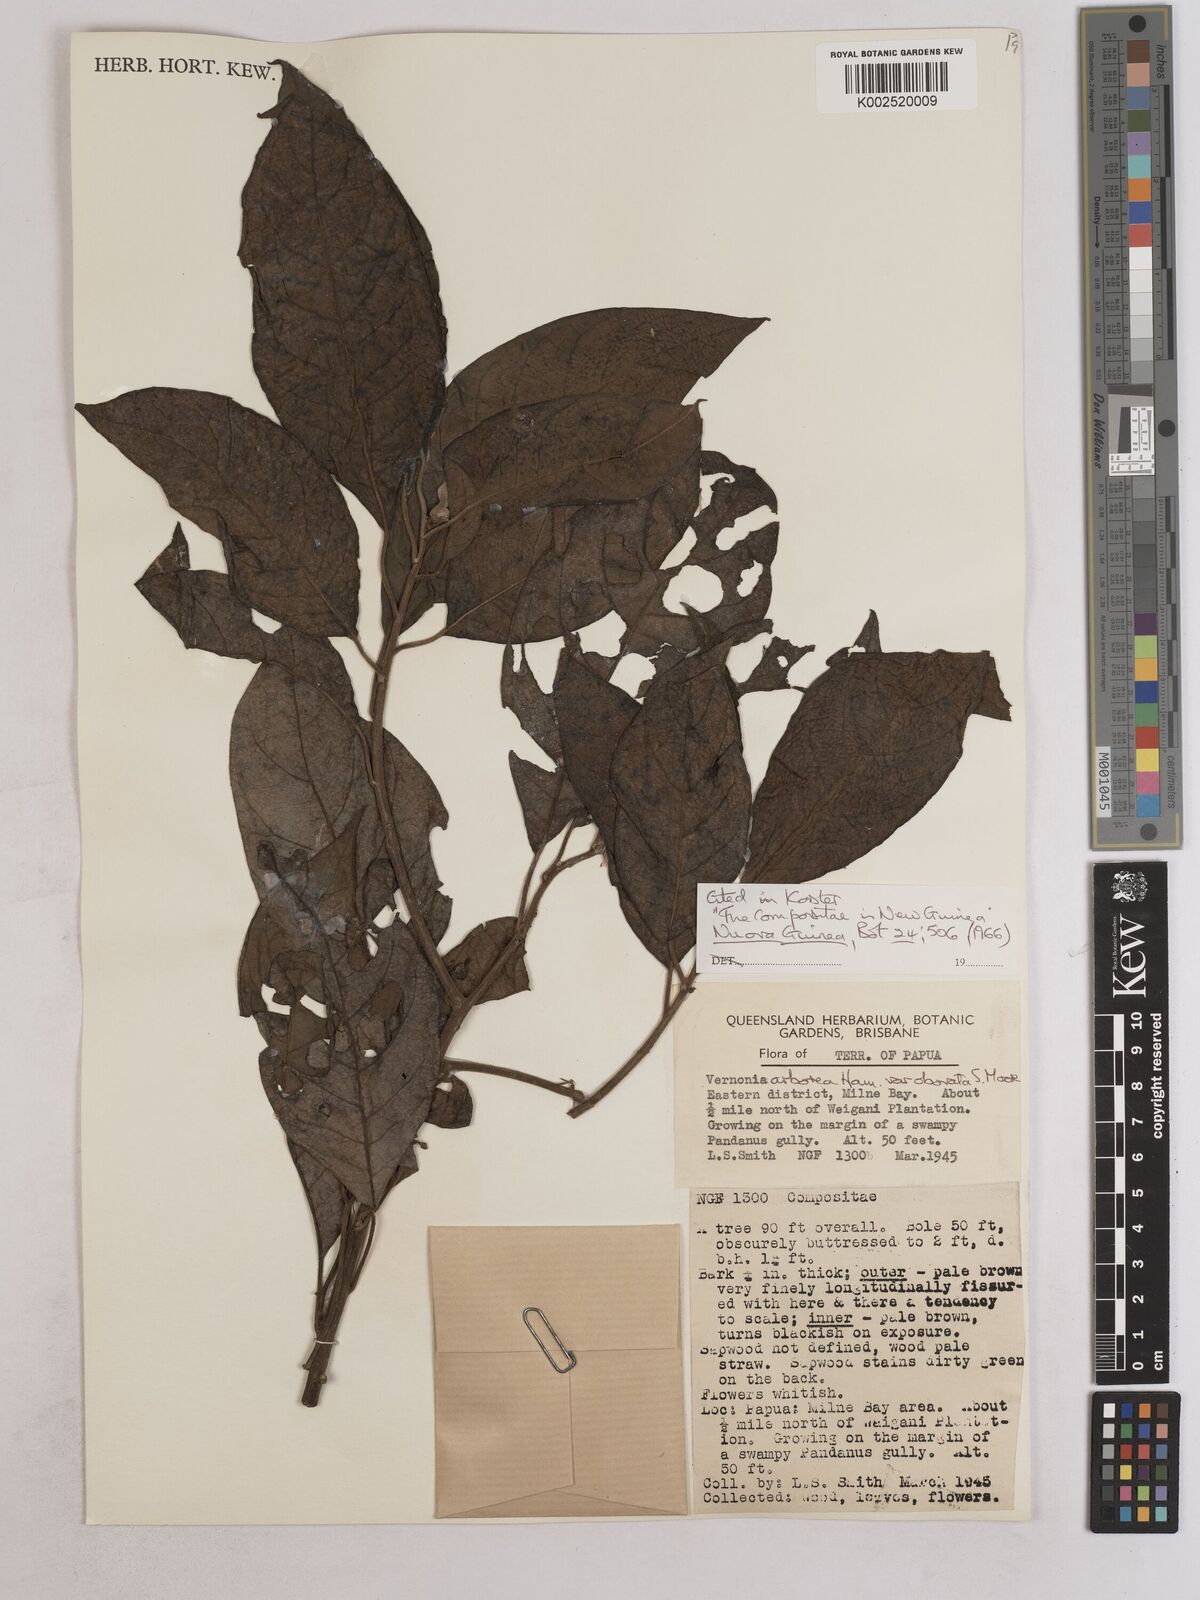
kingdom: Plantae
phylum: Tracheophyta
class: Magnoliopsida
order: Asterales
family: Asteraceae
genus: Strobocalyx
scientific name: Strobocalyx arborea
